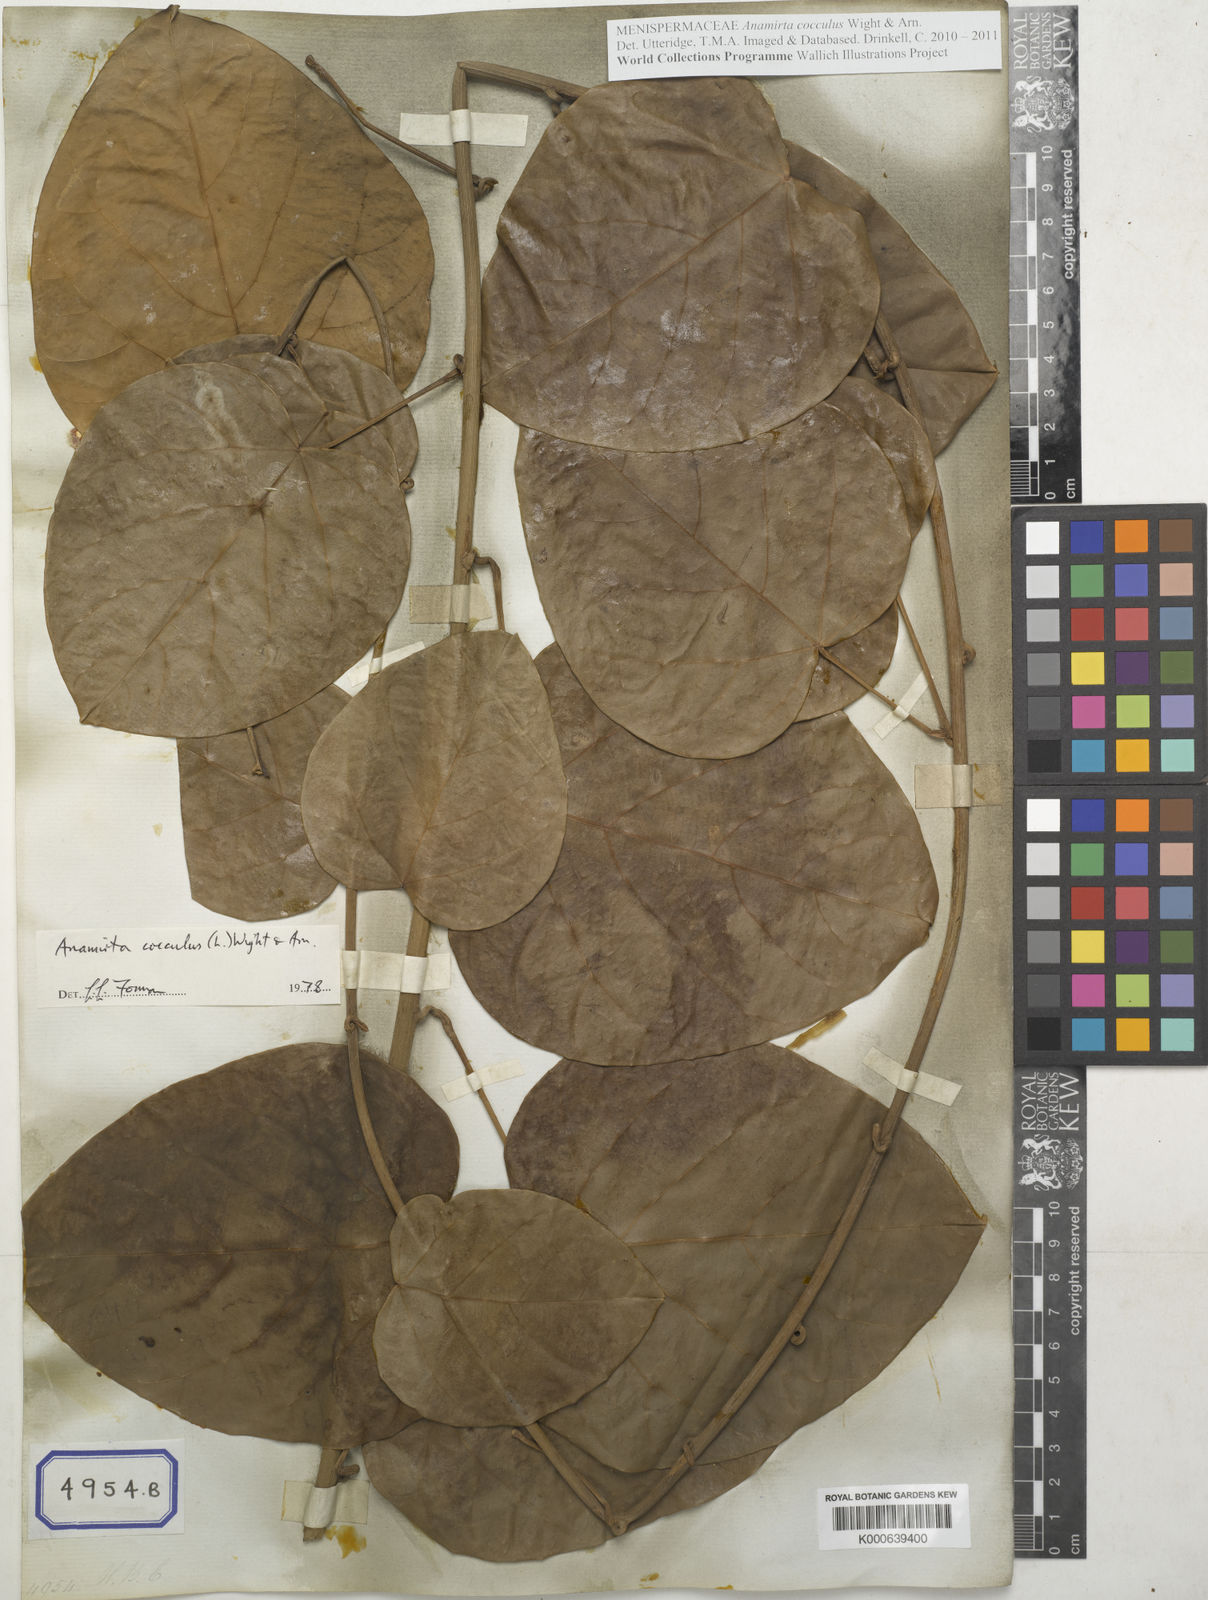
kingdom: Plantae
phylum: Tracheophyta
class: Magnoliopsida
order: Ranunculales
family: Menispermaceae
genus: Cocculus
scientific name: Cocculus
